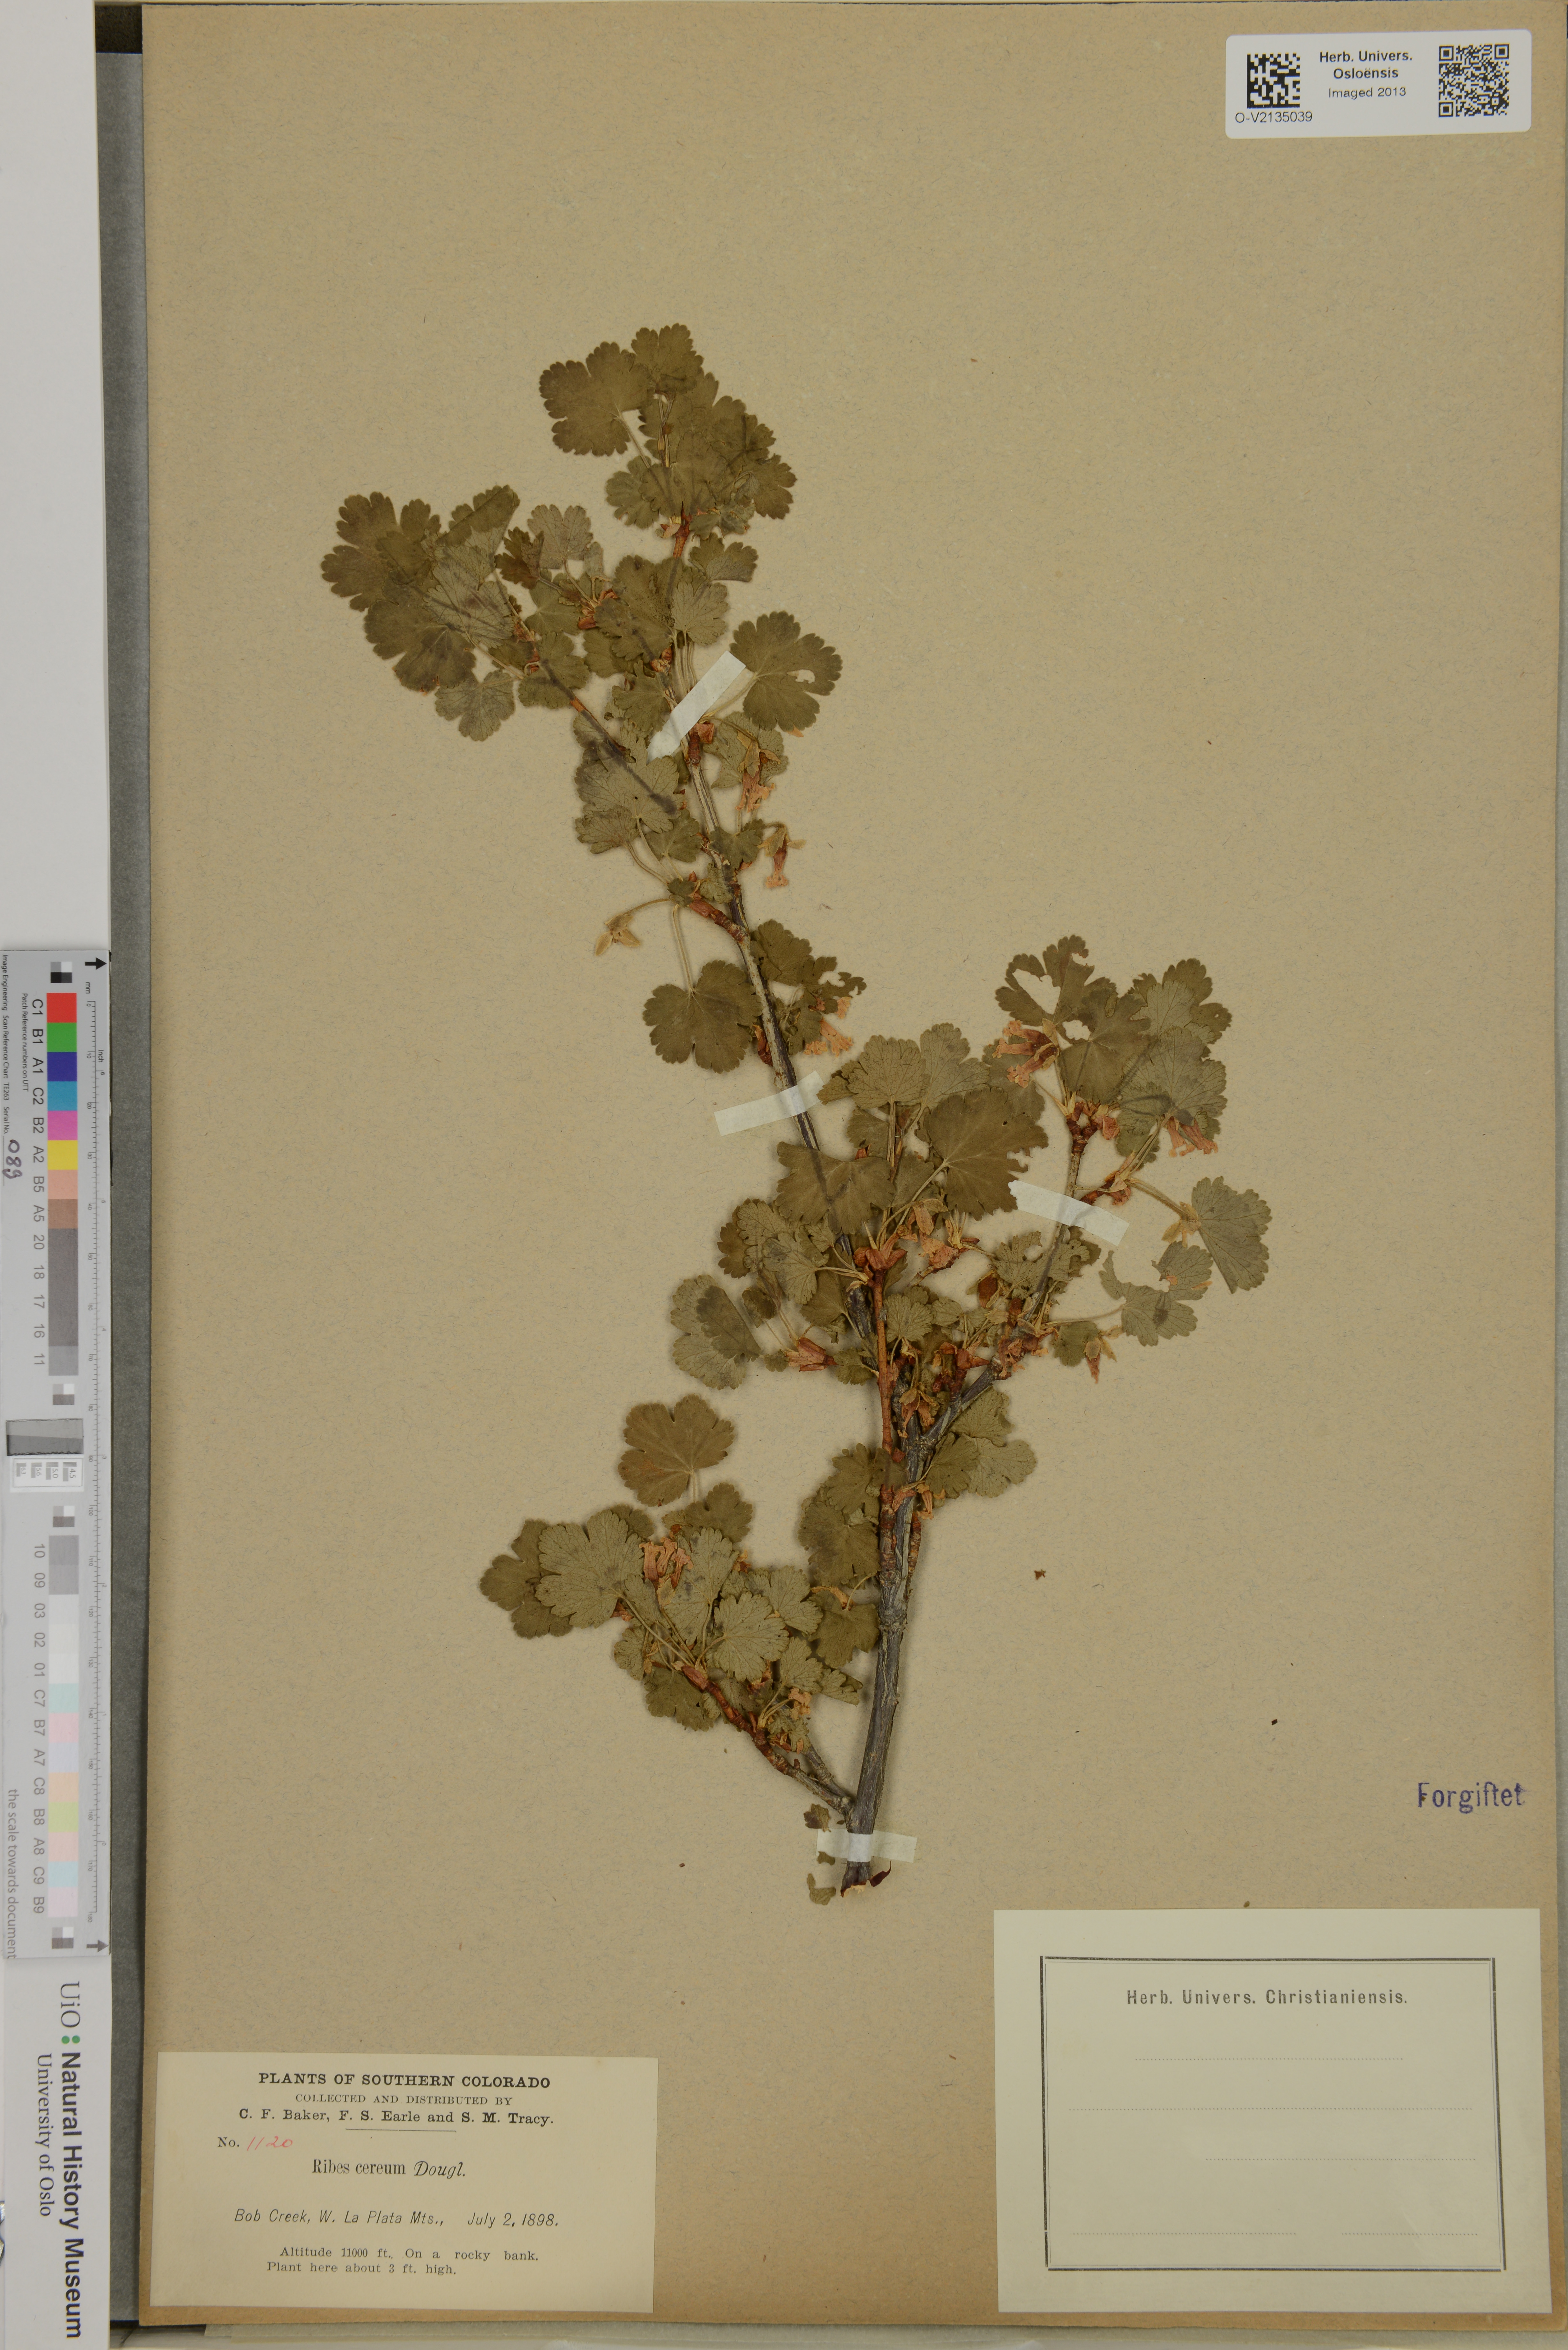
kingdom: Plantae
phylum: Tracheophyta
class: Magnoliopsida
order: Saxifragales
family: Grossulariaceae
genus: Ribes
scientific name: Ribes cereum
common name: Wax currant
